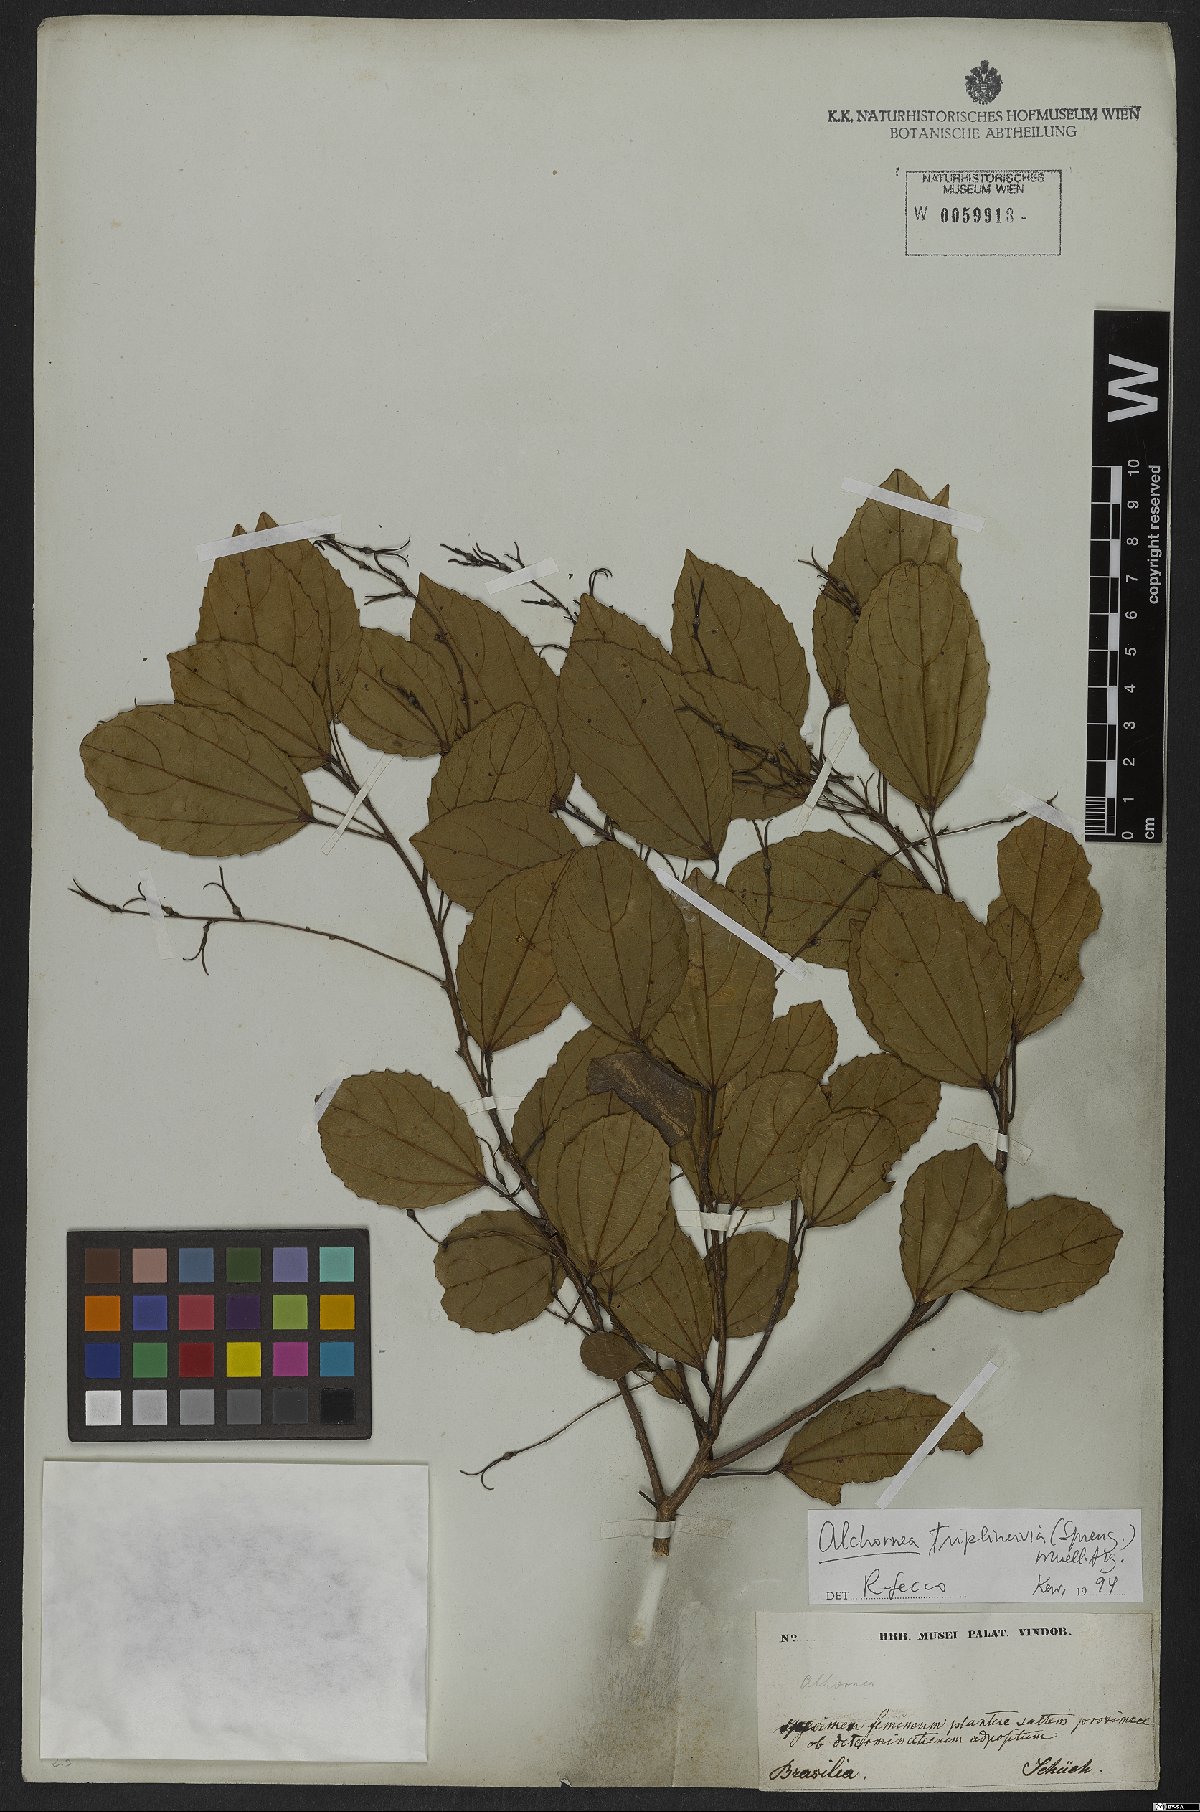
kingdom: Plantae
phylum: Tracheophyta
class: Magnoliopsida
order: Malpighiales
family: Euphorbiaceae
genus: Alchornea
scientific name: Alchornea triplinervia
